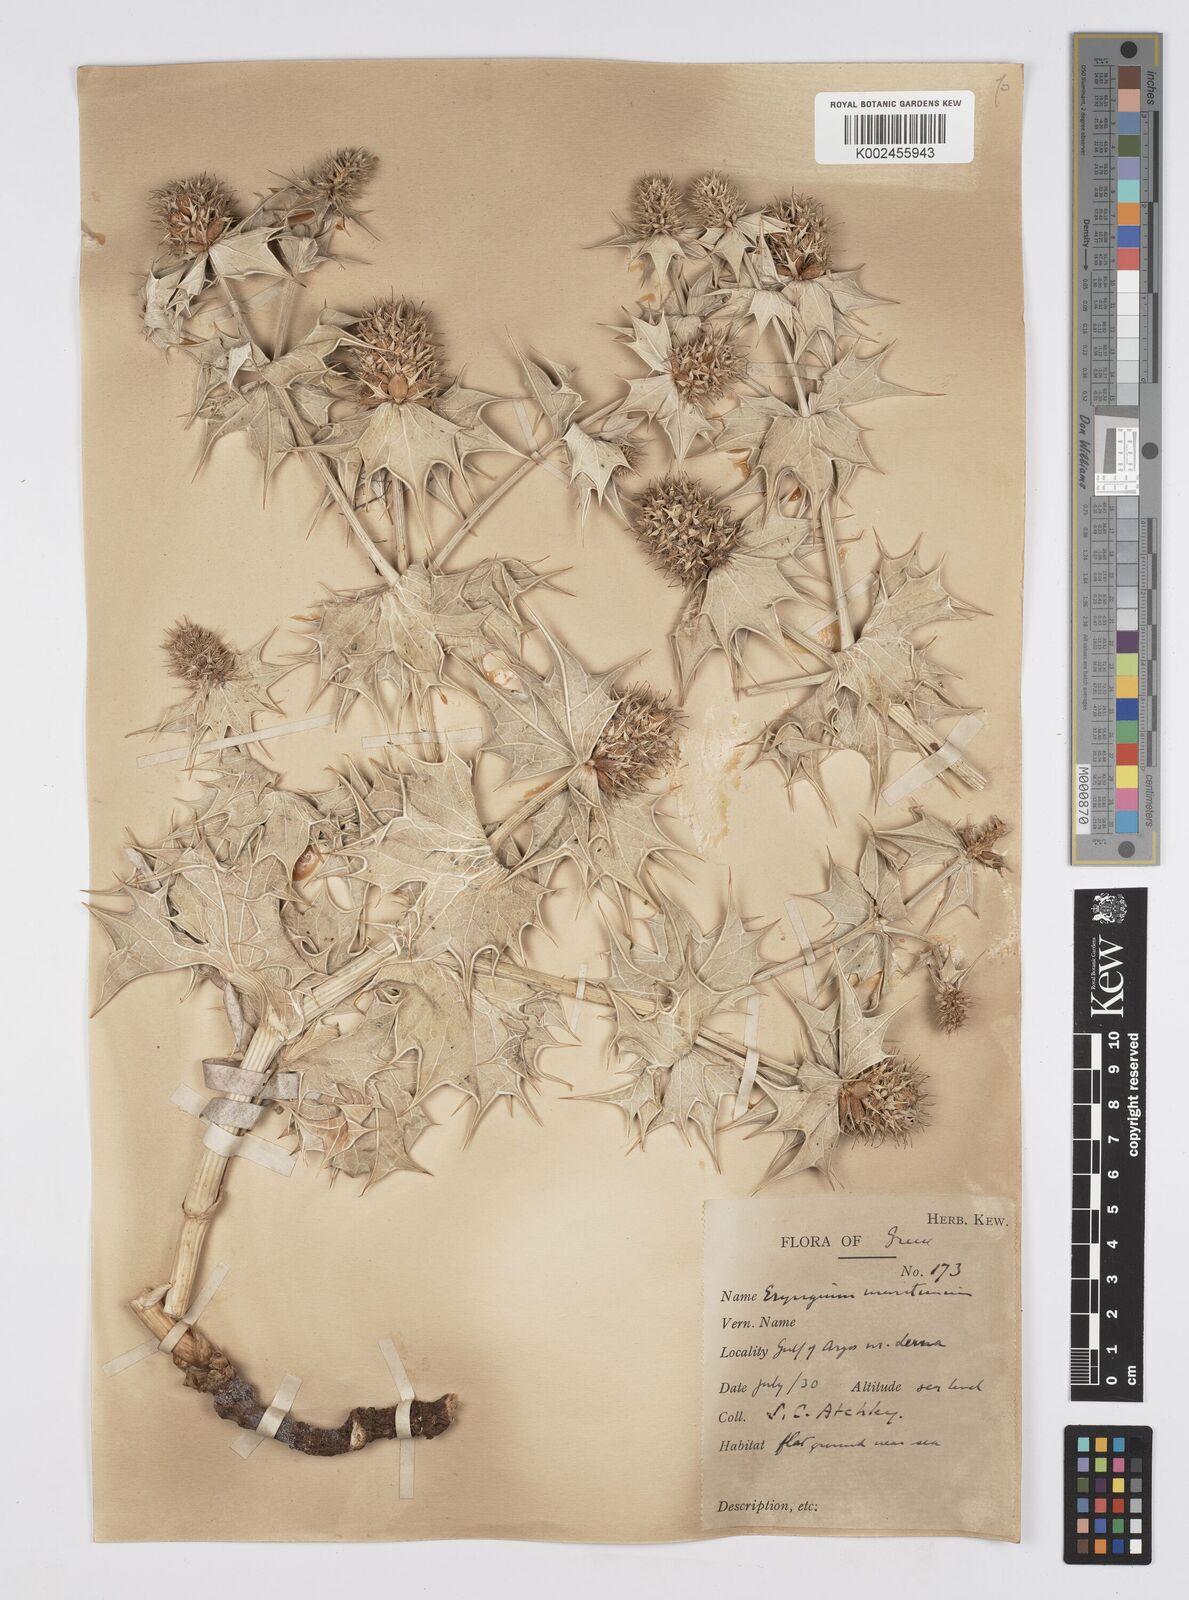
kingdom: Plantae
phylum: Tracheophyta
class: Magnoliopsida
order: Apiales
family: Apiaceae
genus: Eryngium
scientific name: Eryngium maritimum
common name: Sea-holly
